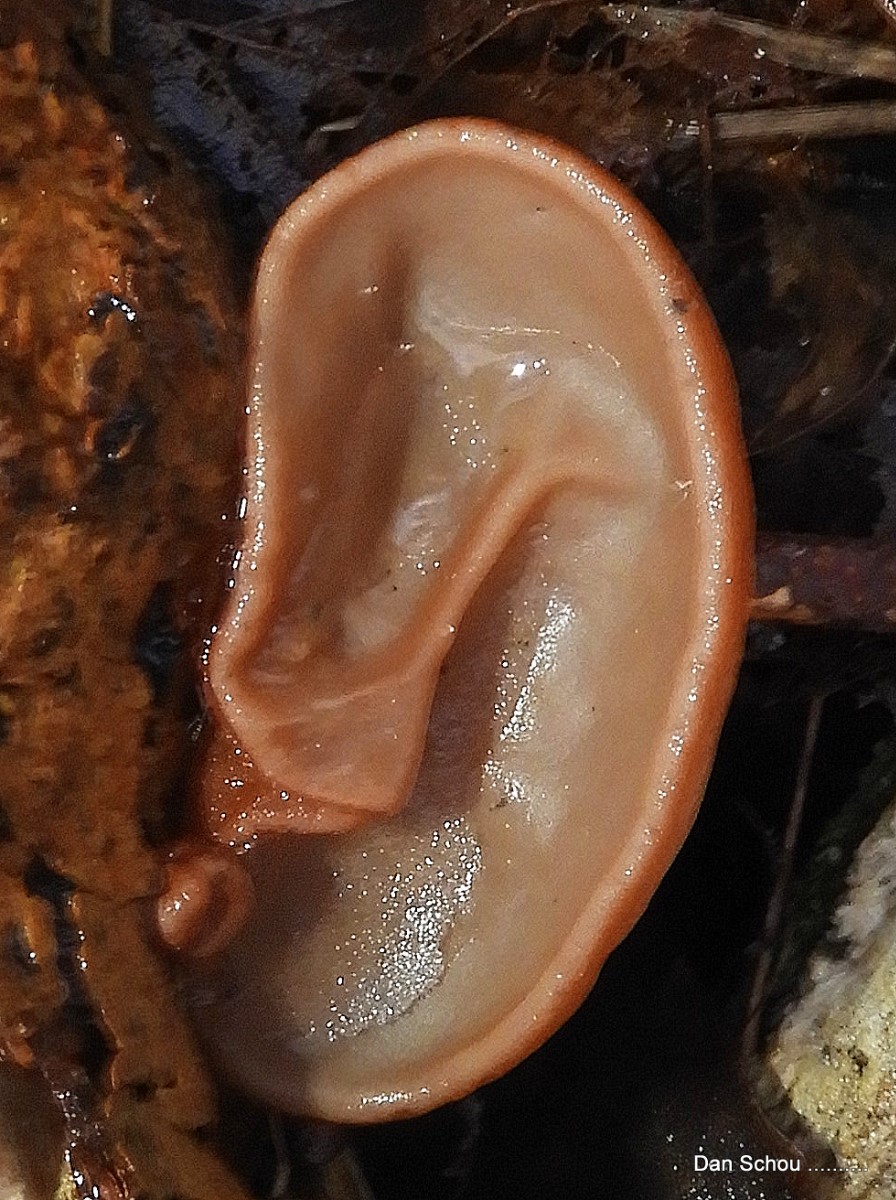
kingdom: Fungi
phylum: Basidiomycota
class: Agaricomycetes
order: Auriculariales
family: Auriculariaceae
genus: Auricularia
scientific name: Auricularia auricula-judae
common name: almindelig judasøre
